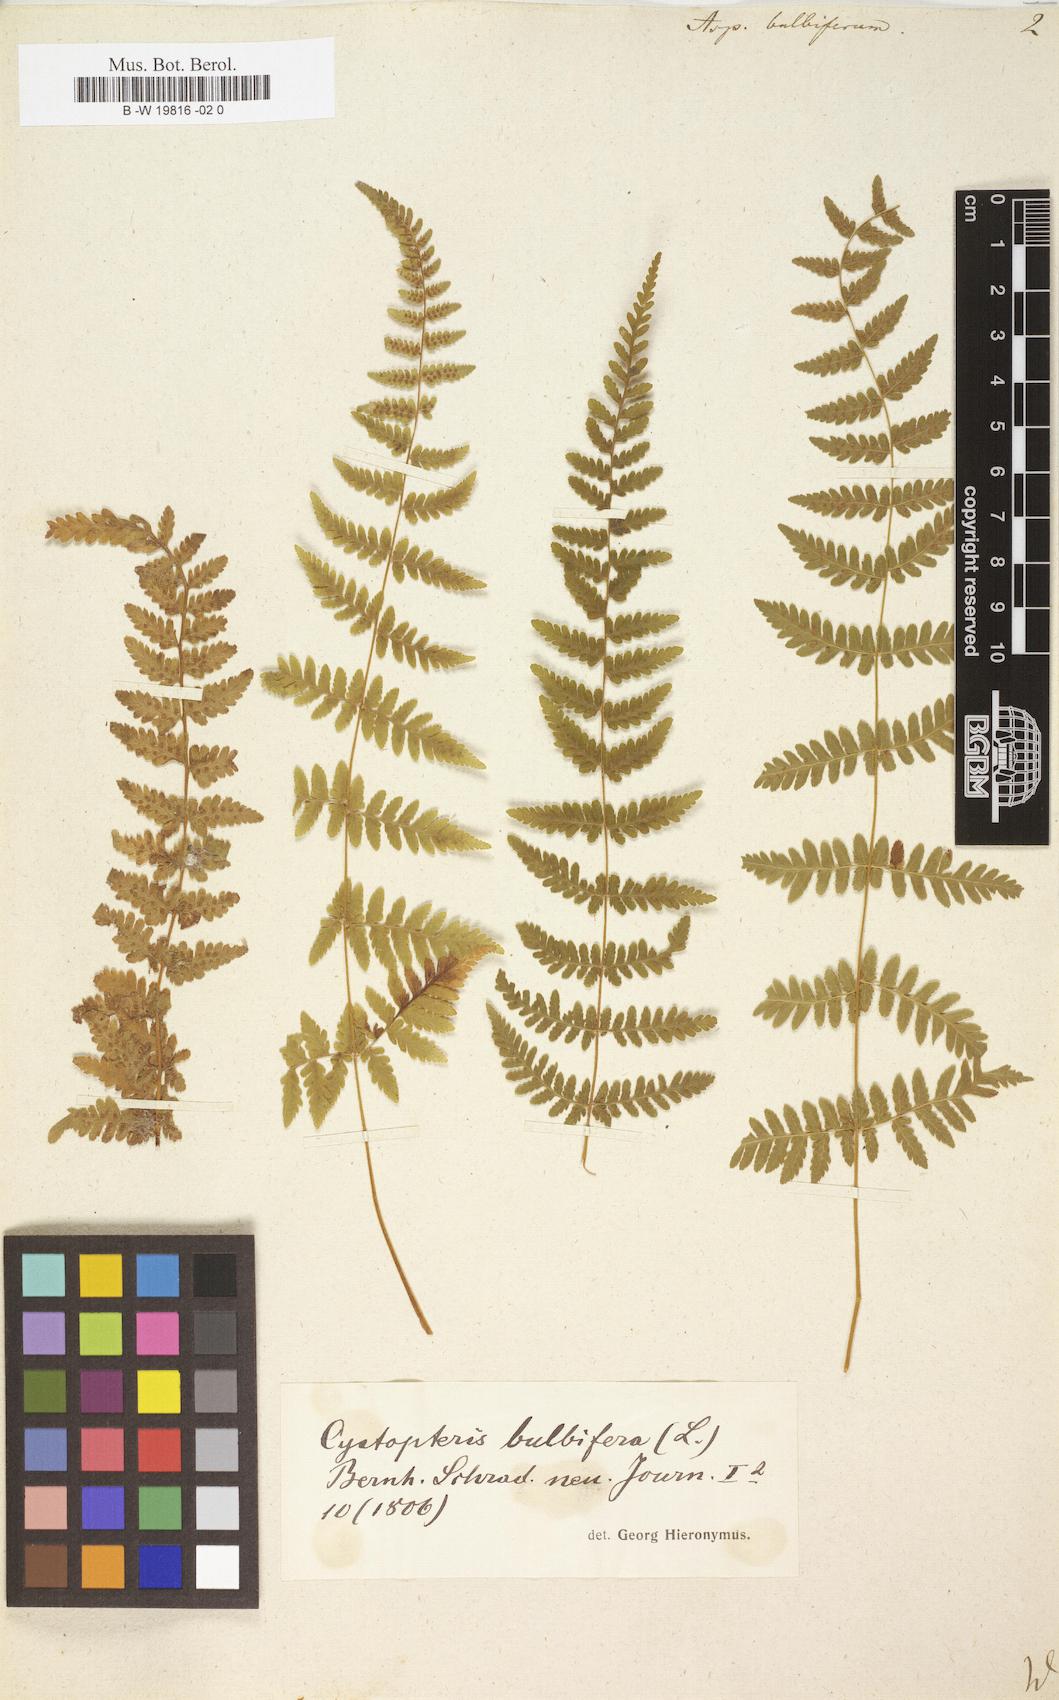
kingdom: Plantae
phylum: Tracheophyta
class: Polypodiopsida
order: Polypodiales
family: Cystopteridaceae
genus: Cystopteris
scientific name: Cystopteris bulbifera
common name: Bulblet bladder fern
